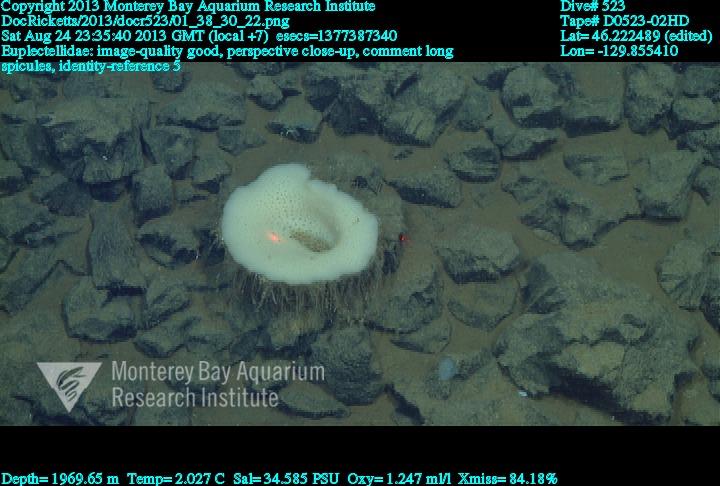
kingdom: Animalia
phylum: Porifera
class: Hexactinellida
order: Lyssacinosida
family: Euplectellidae
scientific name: Euplectellidae
